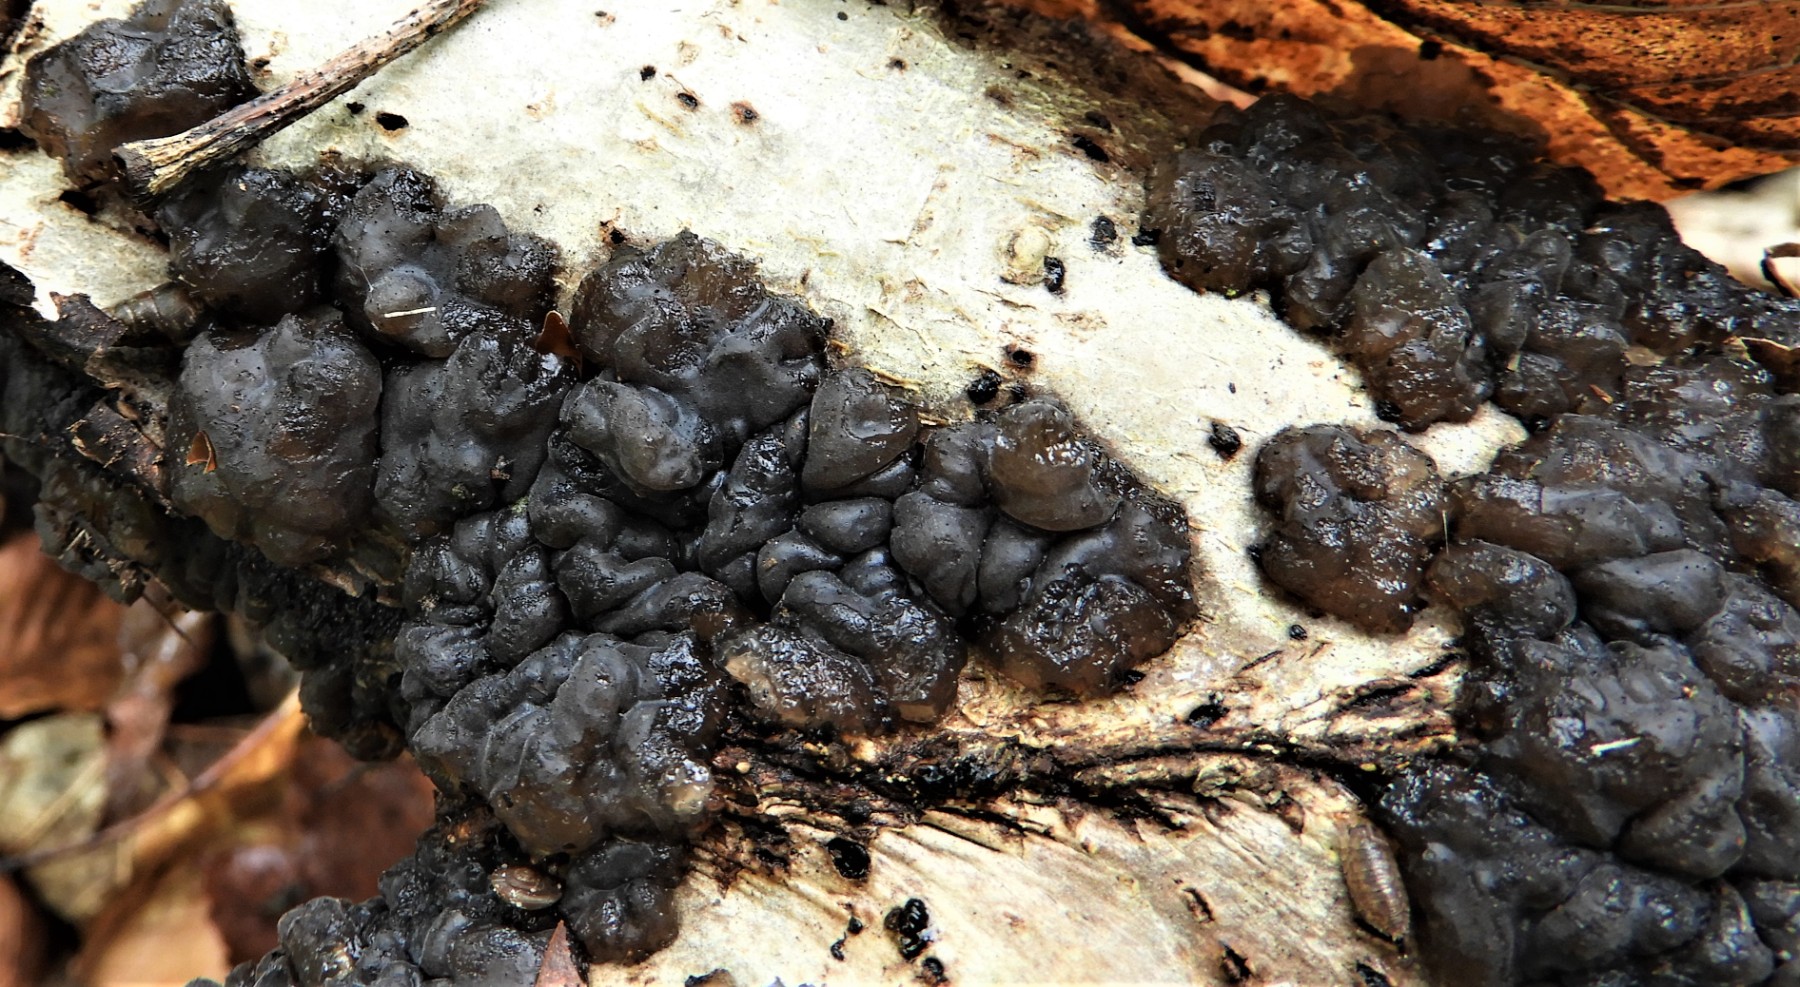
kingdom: Fungi
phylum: Basidiomycota
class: Agaricomycetes
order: Auriculariales
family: Auriculariaceae
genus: Exidia
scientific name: Exidia nigricans
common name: almindelig bævretop
